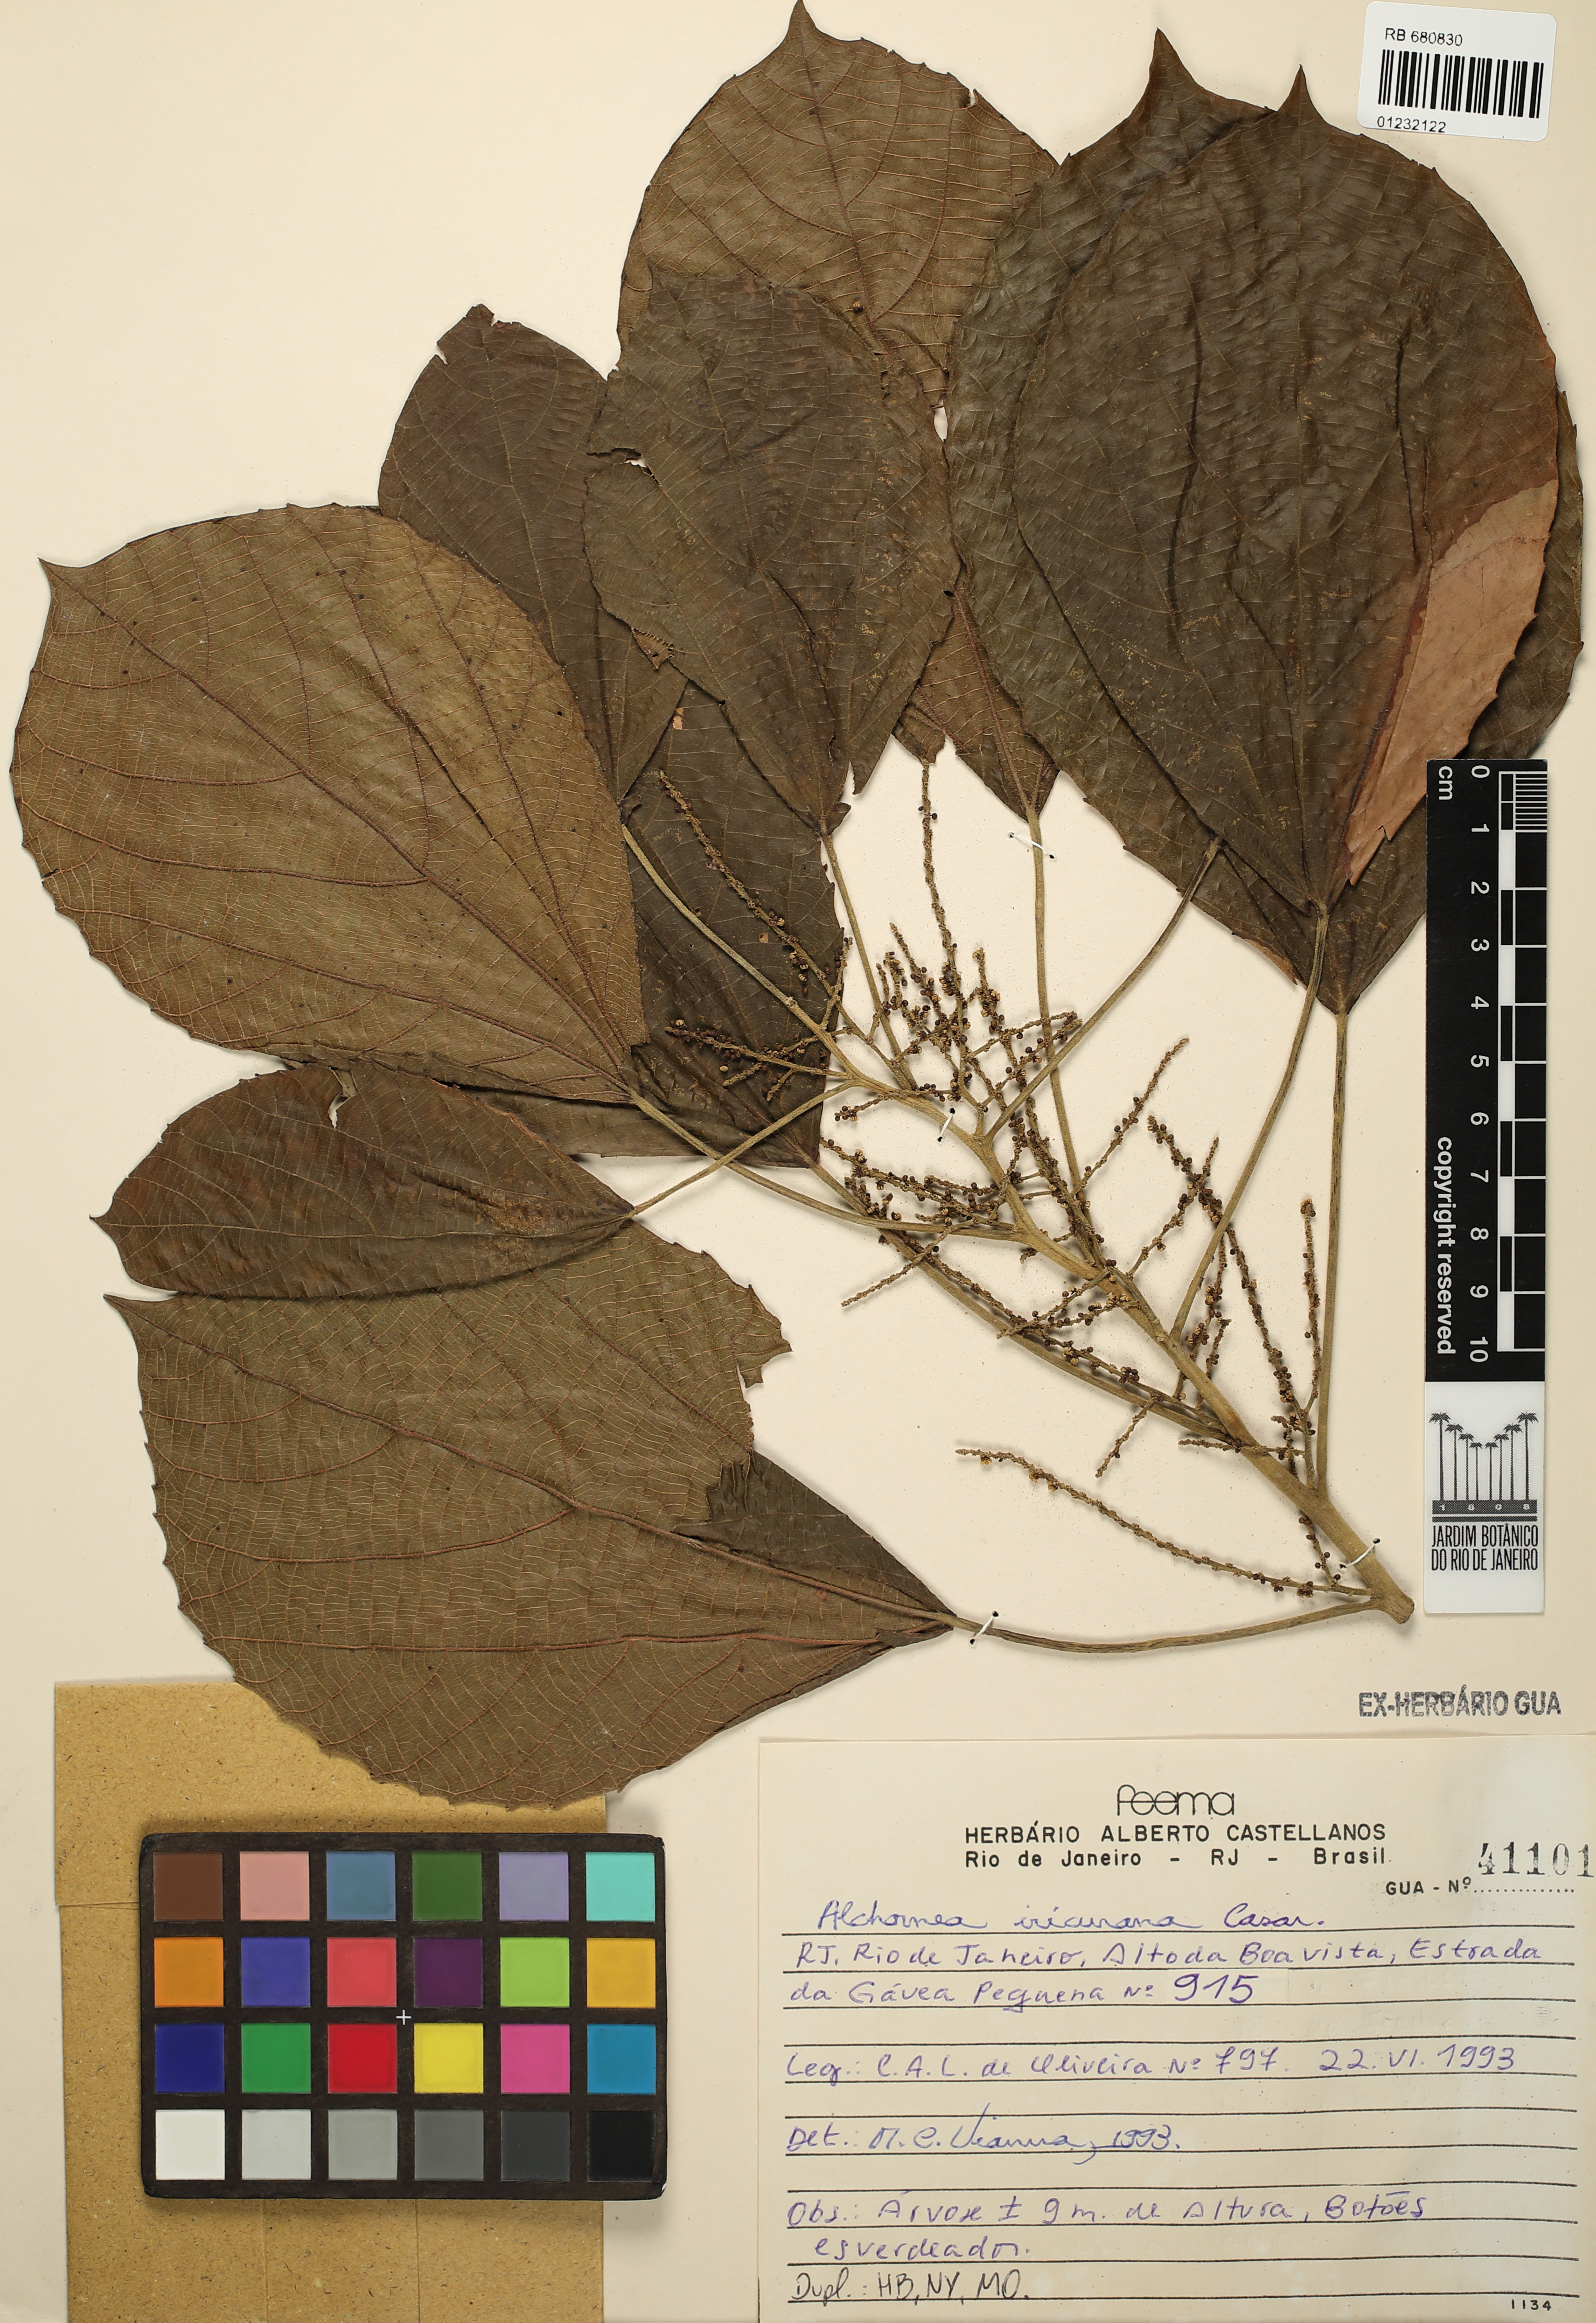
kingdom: Plantae
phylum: Tracheophyta
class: Magnoliopsida
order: Malpighiales
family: Euphorbiaceae
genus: Alchornea
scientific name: Alchornea glandulosa
